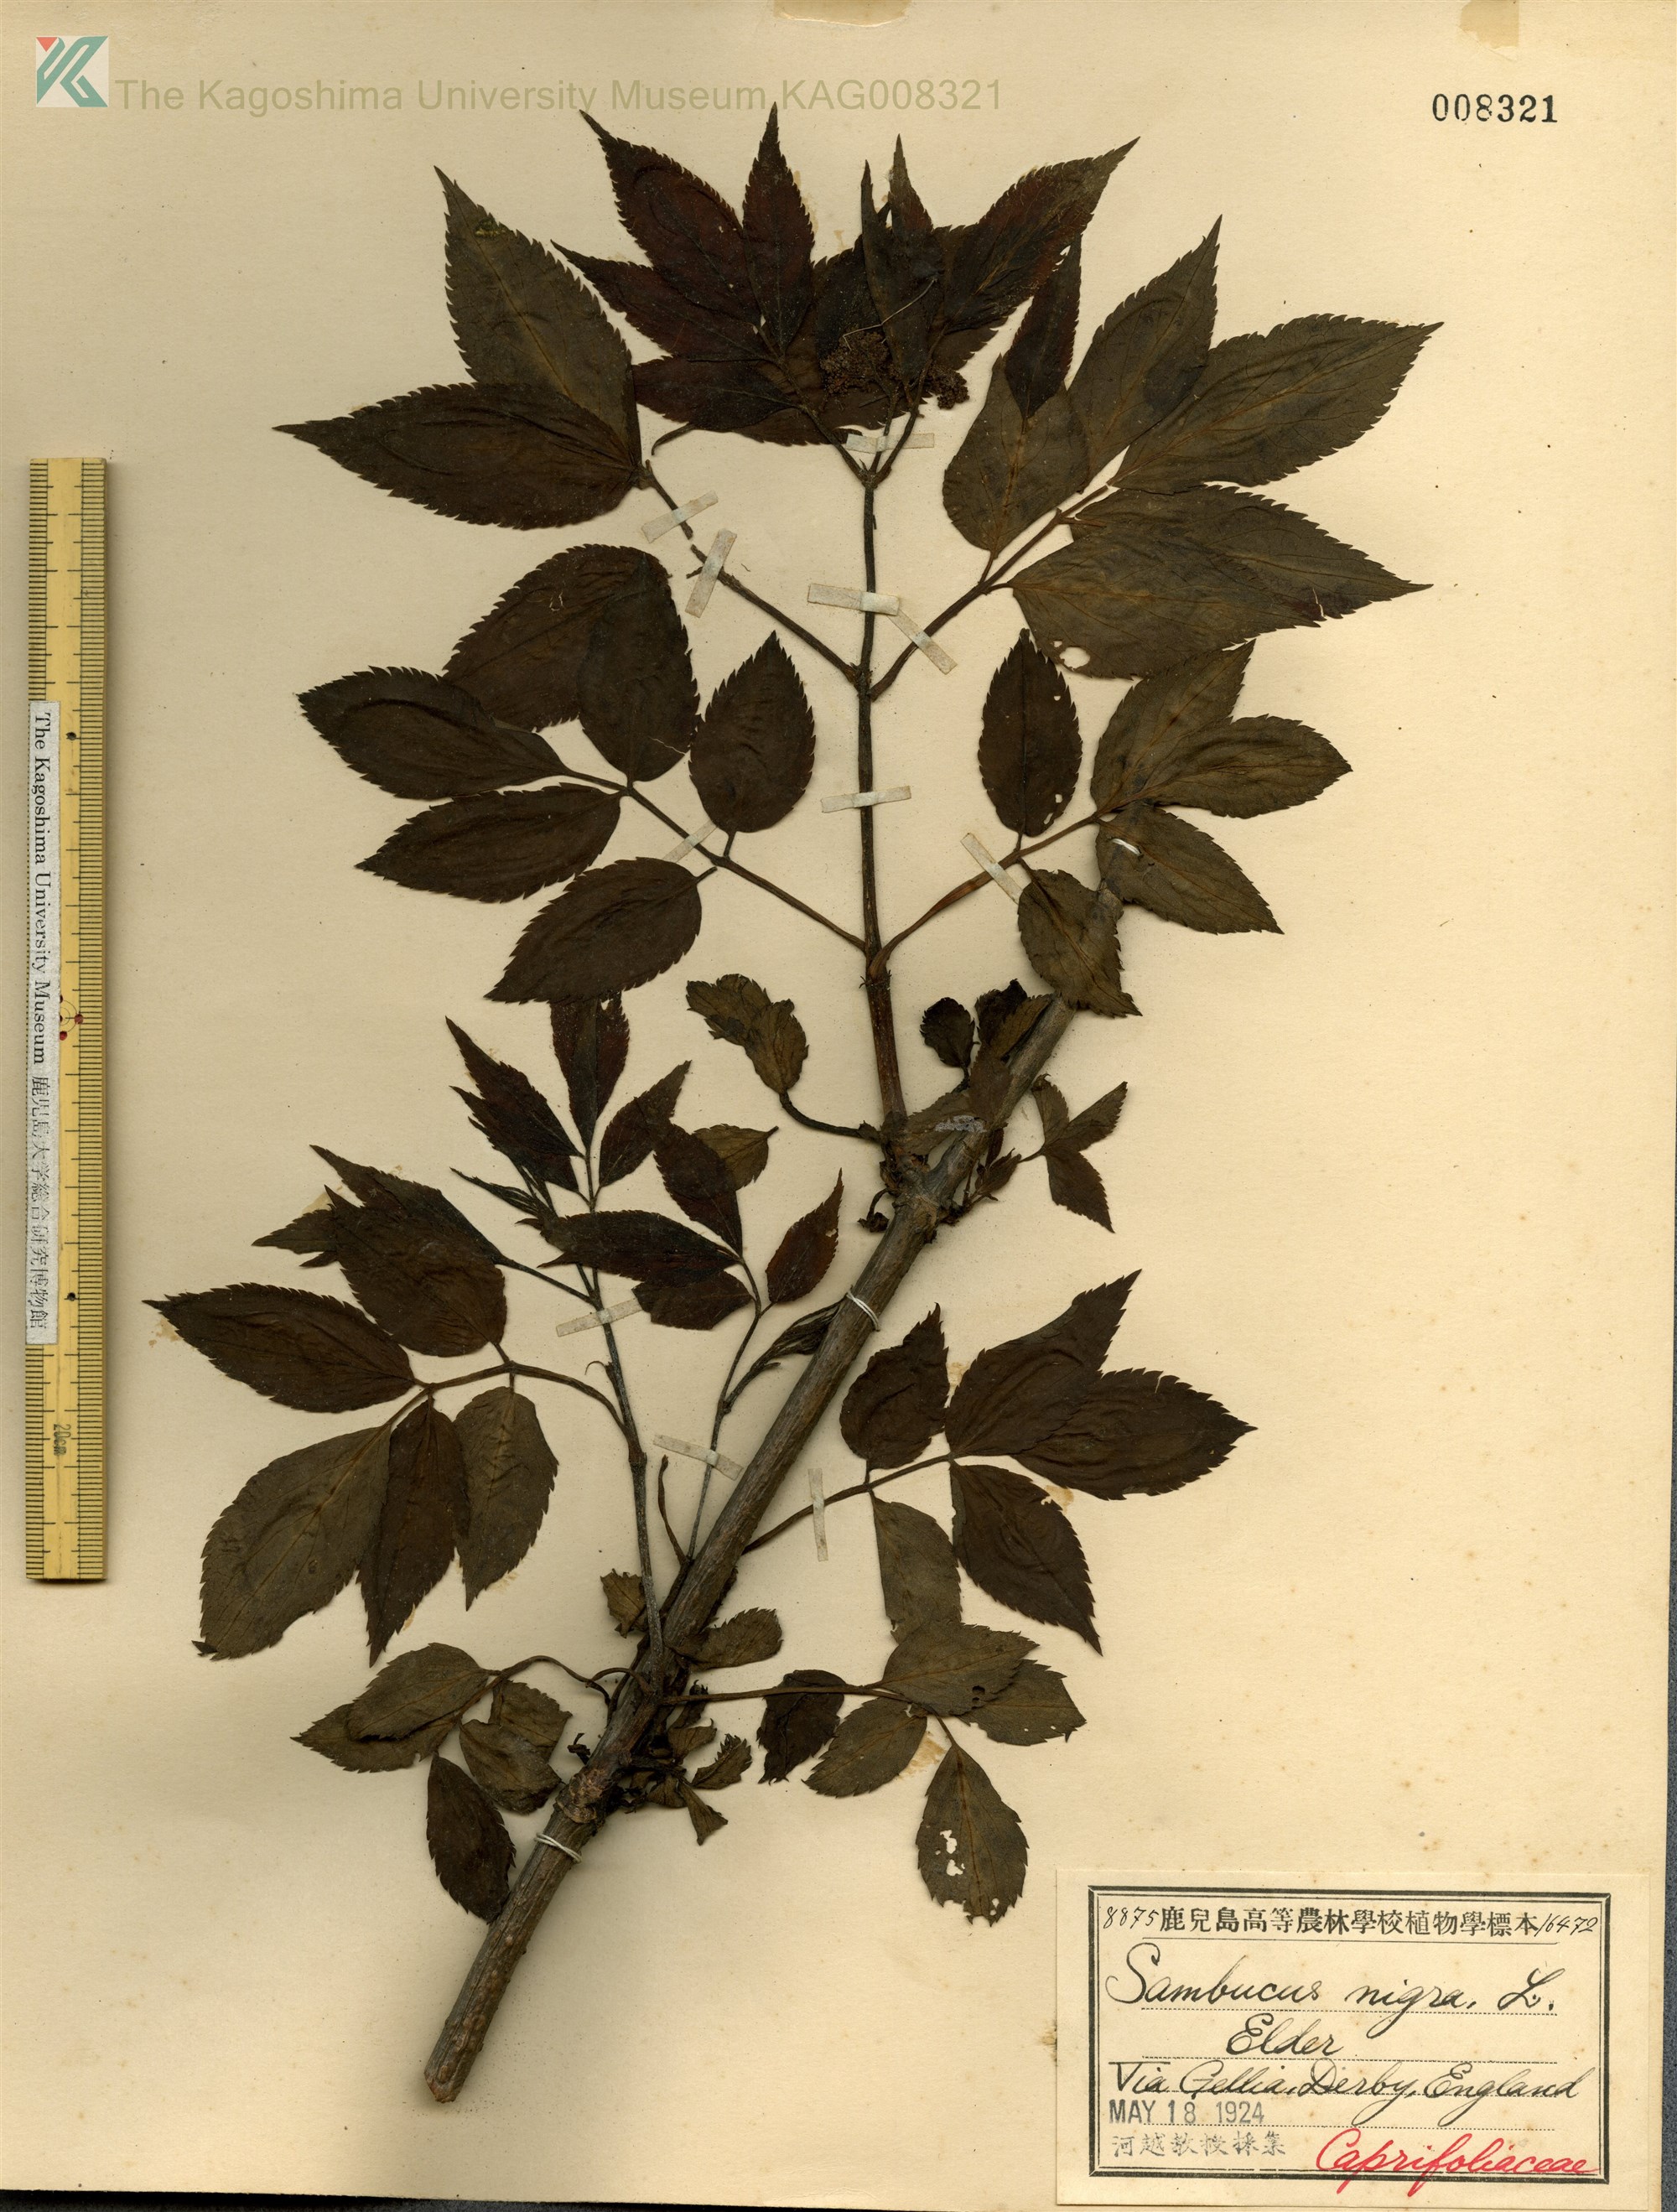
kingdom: Plantae
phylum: Tracheophyta
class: Magnoliopsida
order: Dipsacales
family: Viburnaceae
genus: Sambucus
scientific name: Sambucus nigra
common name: Elder
